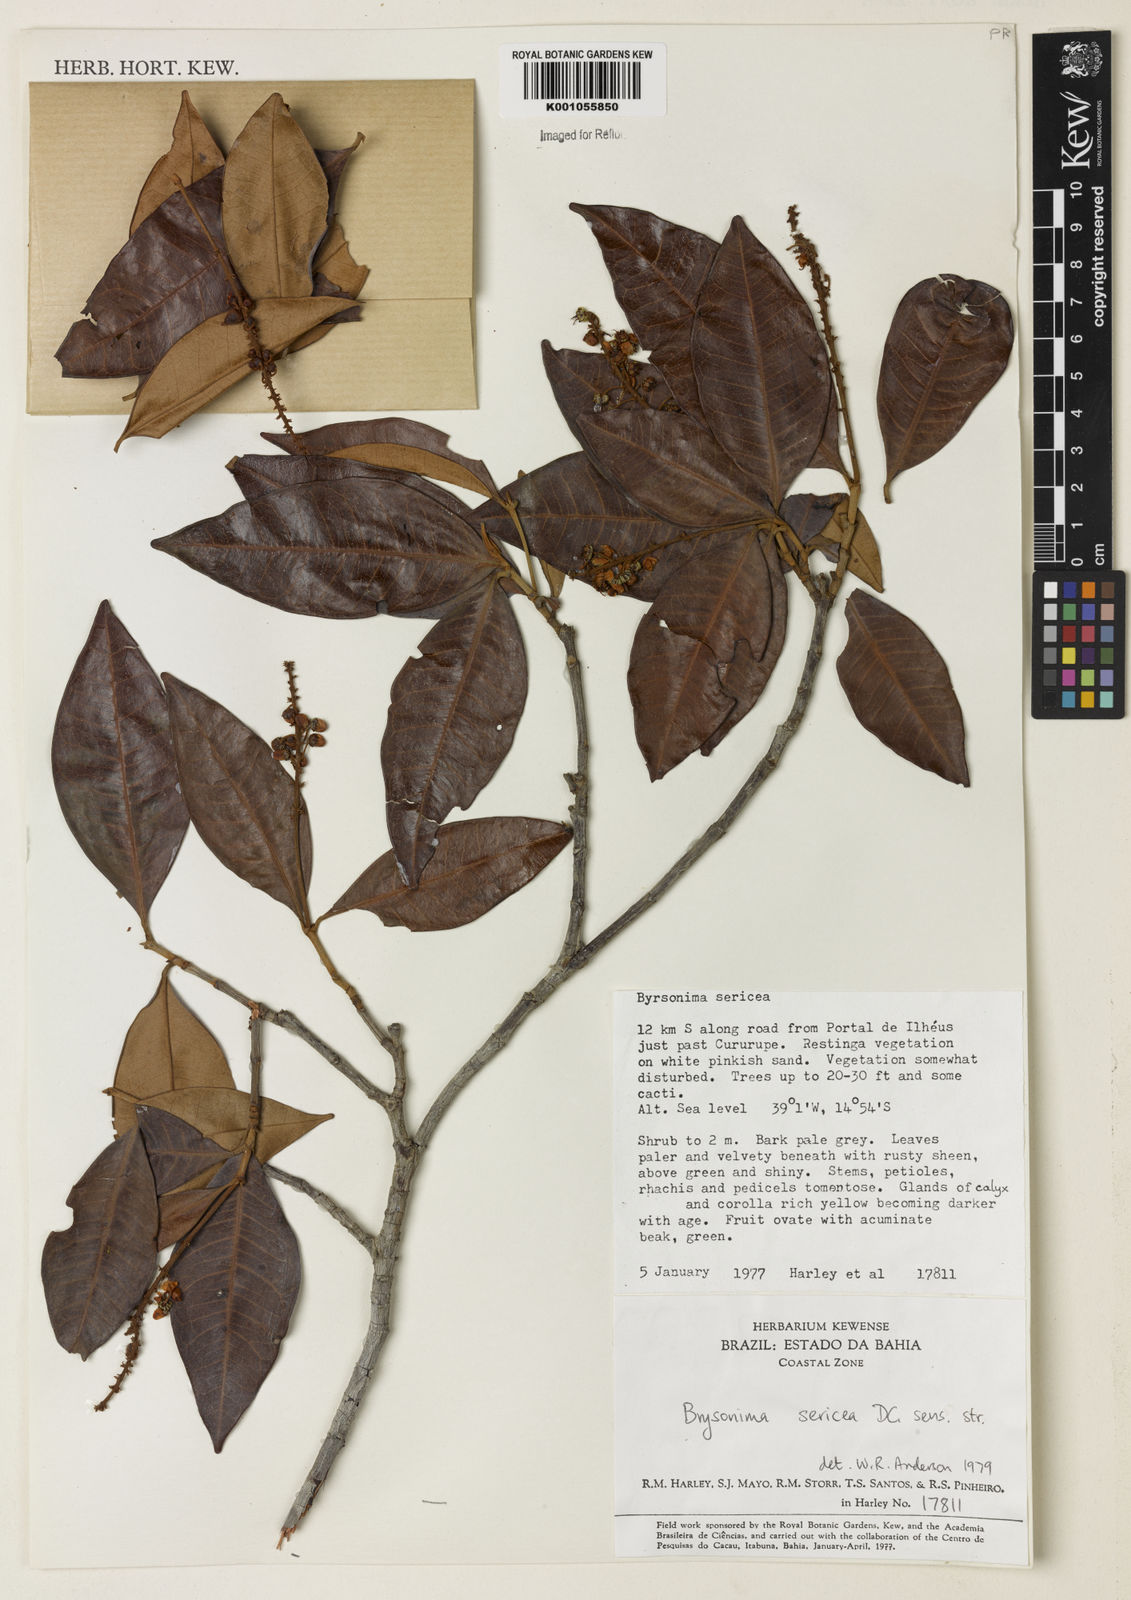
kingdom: Plantae
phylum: Tracheophyta
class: Magnoliopsida
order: Malpighiales
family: Malpighiaceae
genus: Byrsonima
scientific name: Byrsonima sericea
